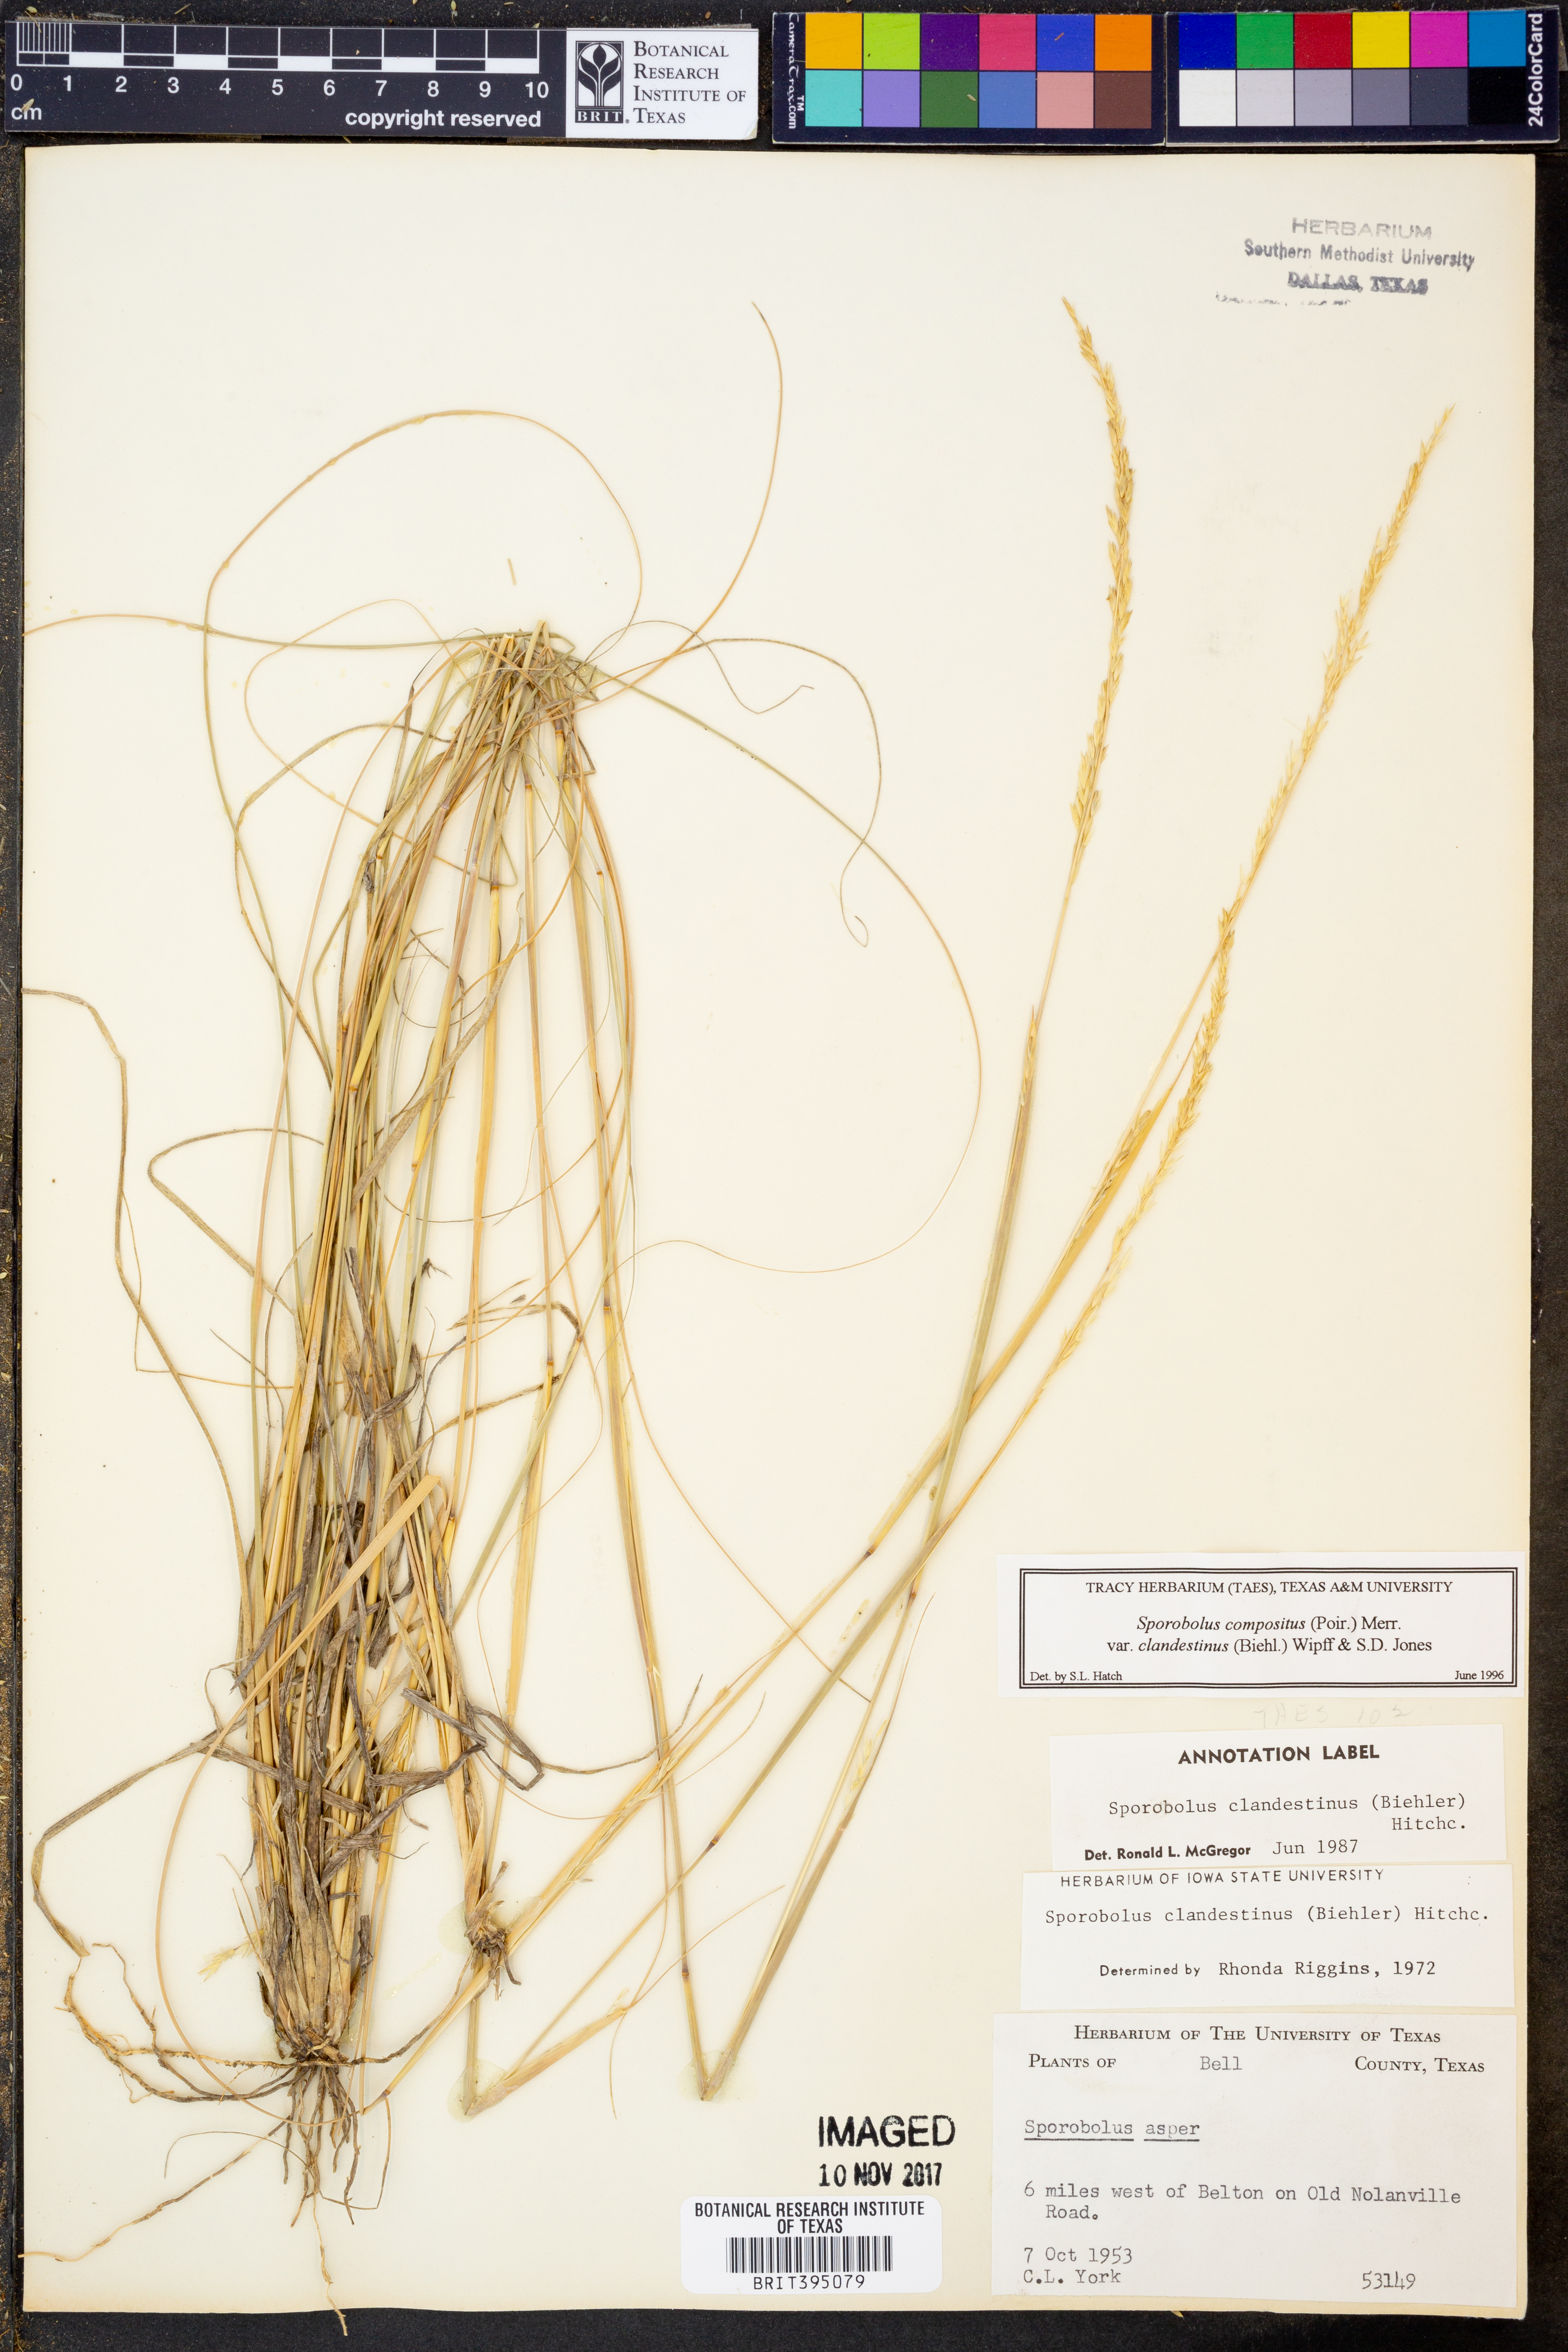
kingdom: Plantae
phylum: Tracheophyta
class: Liliopsida
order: Poales
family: Poaceae
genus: Sporobolus
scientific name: Sporobolus clandestinus
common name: Hidden dropseed
